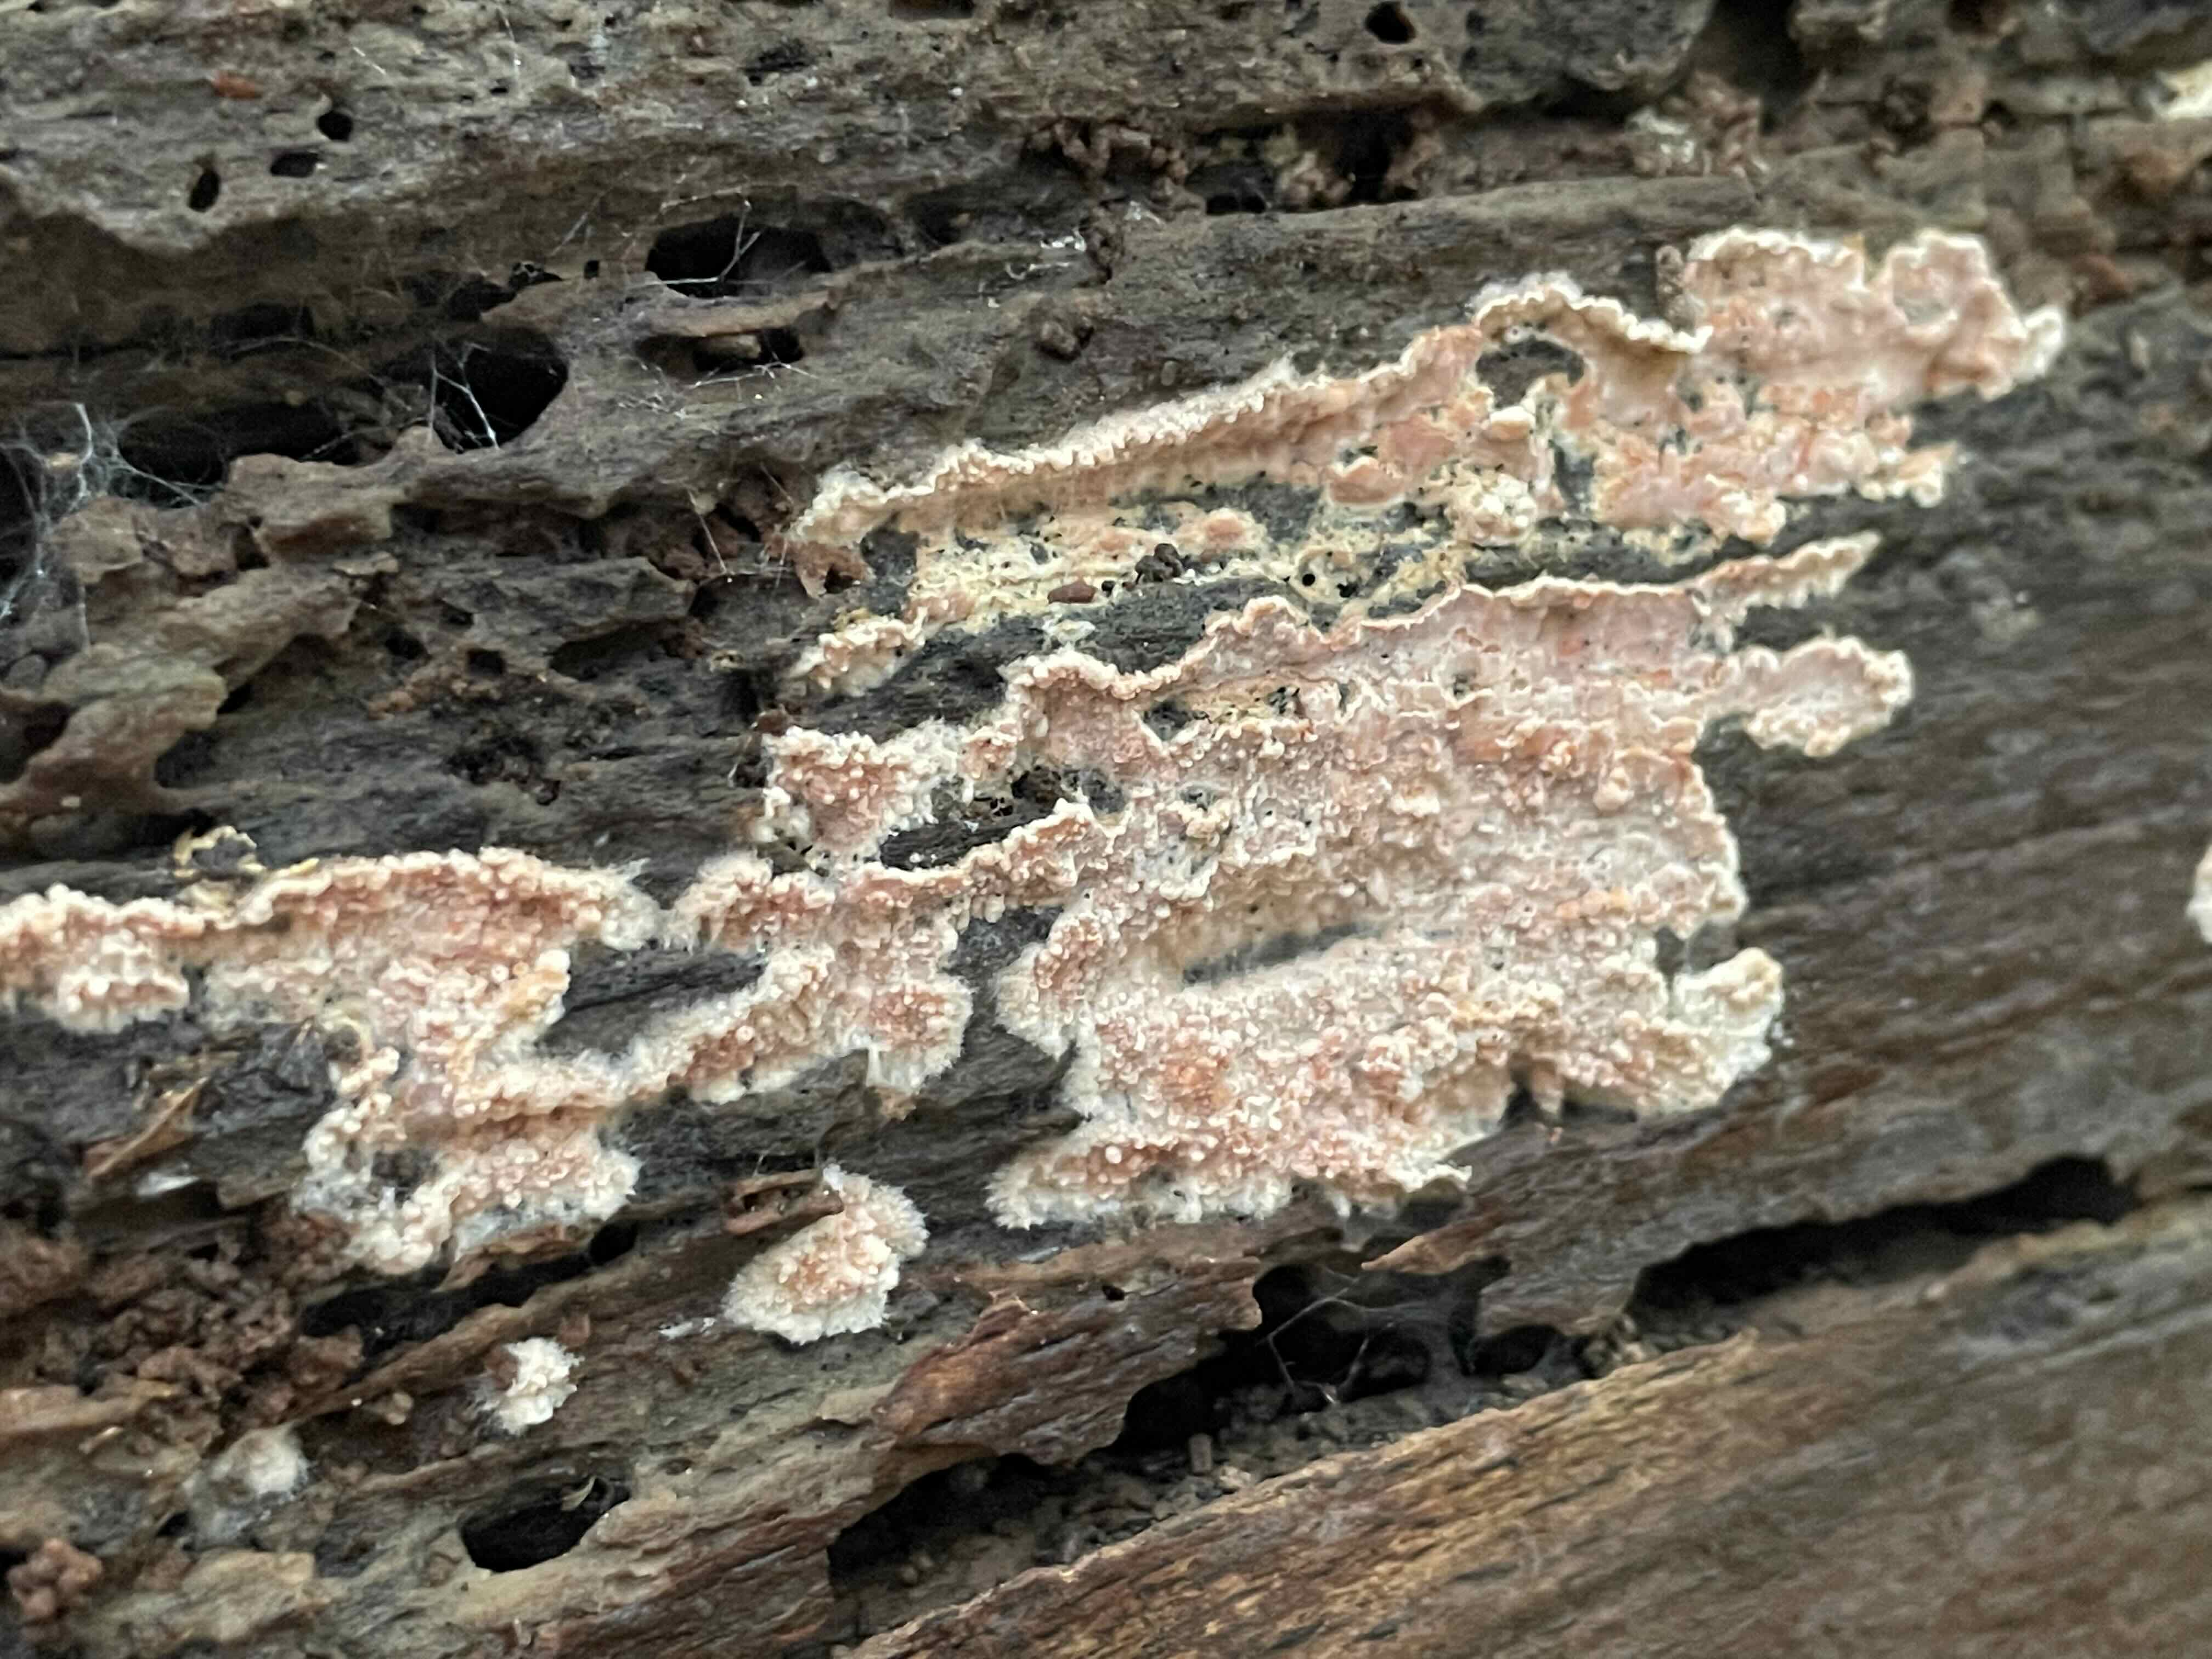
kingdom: Fungi
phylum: Basidiomycota
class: Agaricomycetes
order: Corticiales
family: Corticiaceae
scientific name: Corticiaceae
